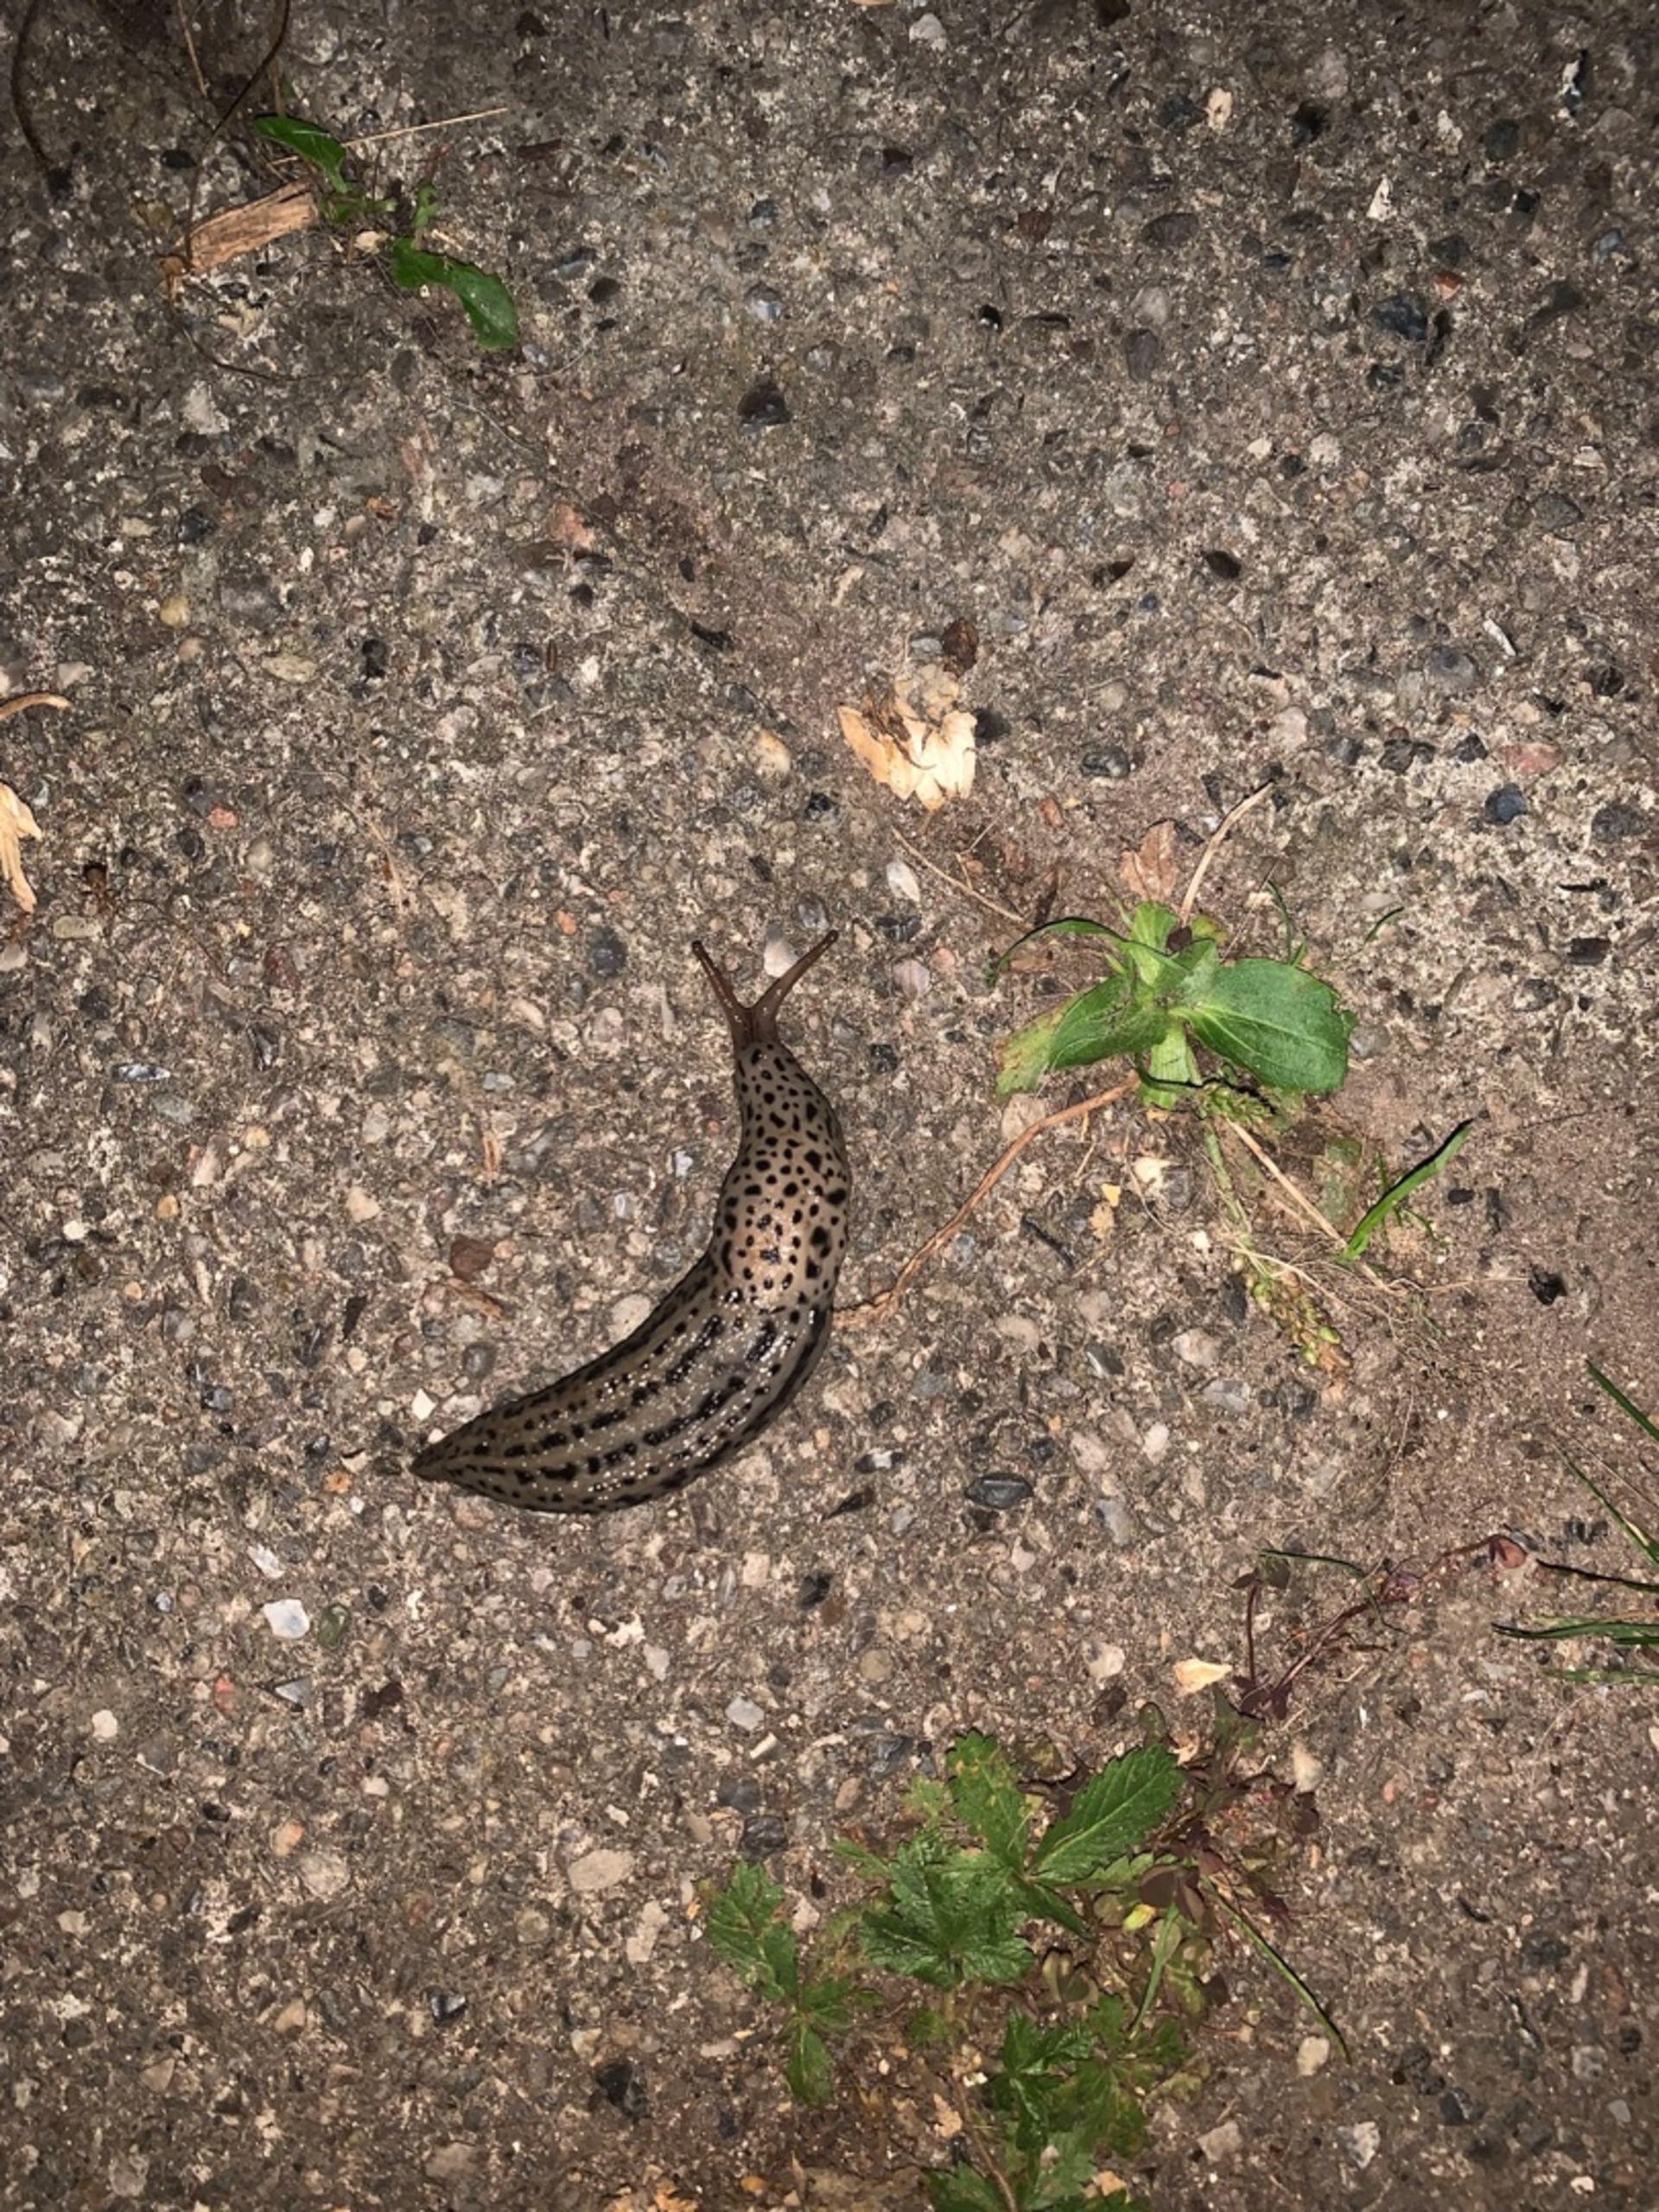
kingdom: Animalia
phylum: Mollusca
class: Gastropoda
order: Stylommatophora
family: Limacidae
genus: Limax
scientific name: Limax maximus
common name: Pantersnegl
